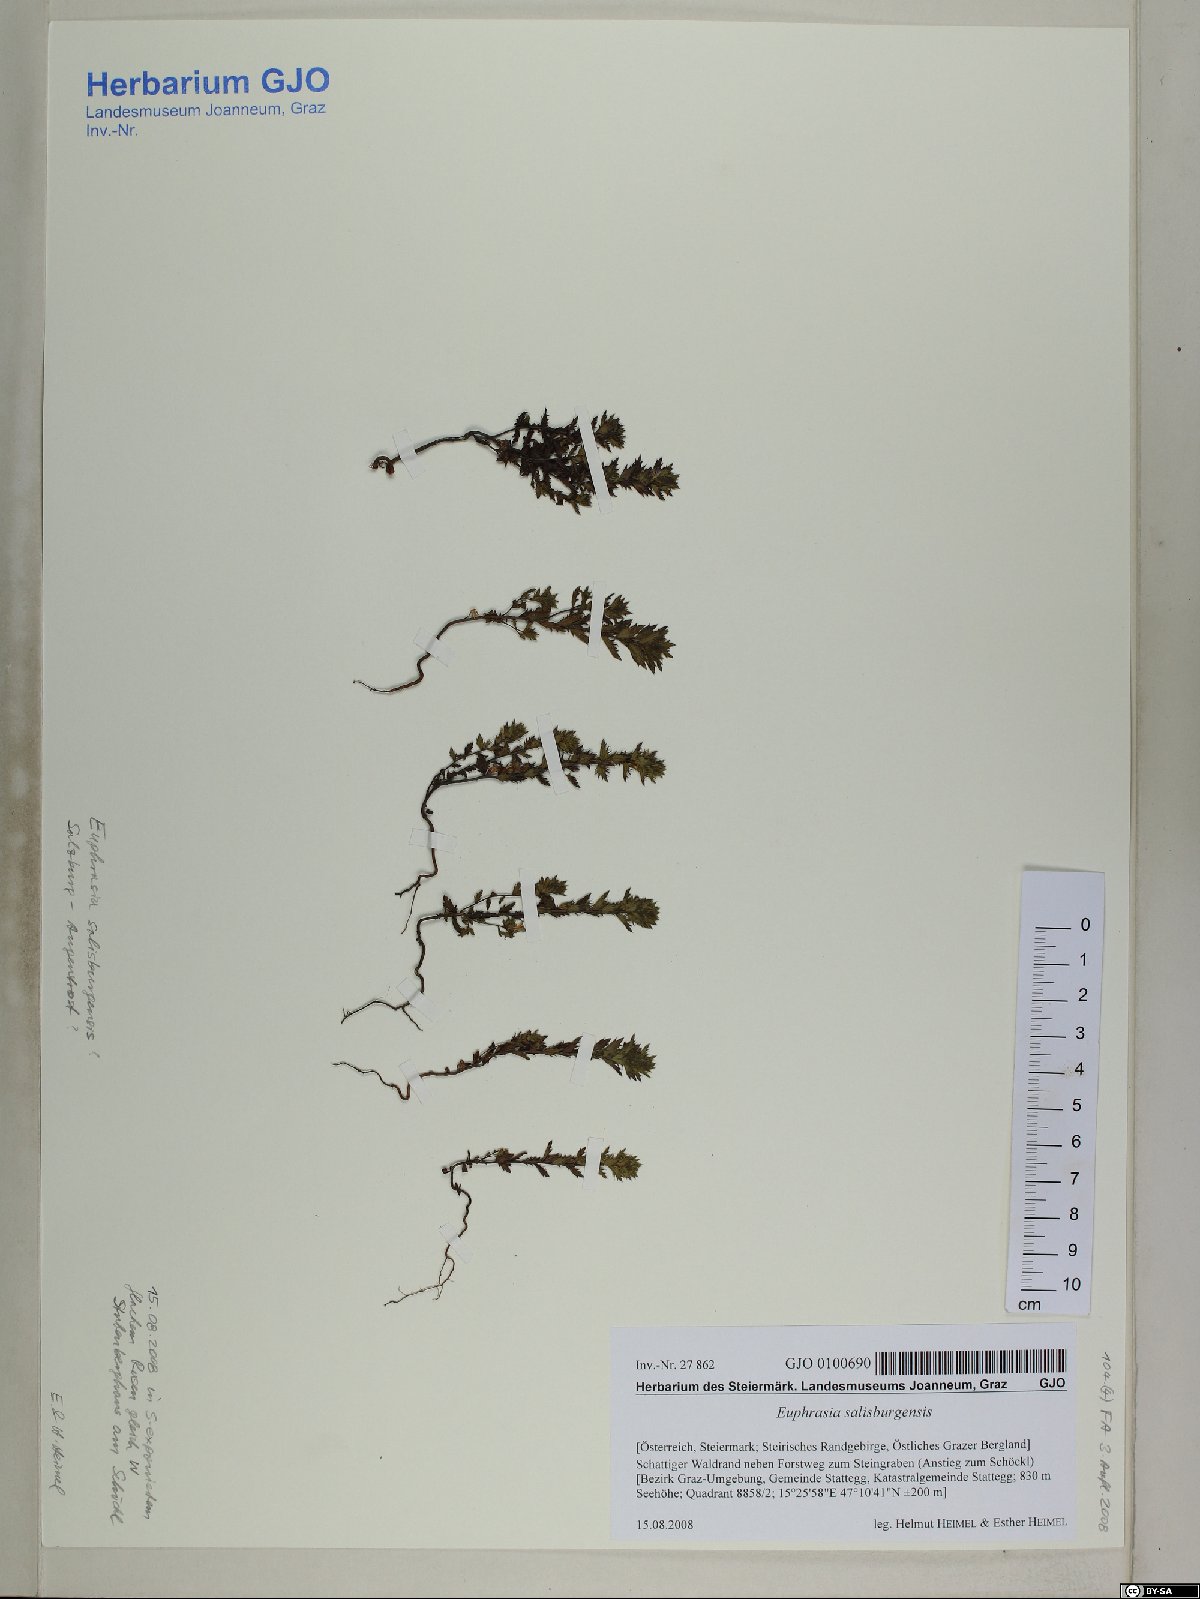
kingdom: Plantae
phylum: Tracheophyta
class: Magnoliopsida
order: Lamiales
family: Orobanchaceae
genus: Euphrasia
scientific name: Euphrasia salisburgensis
